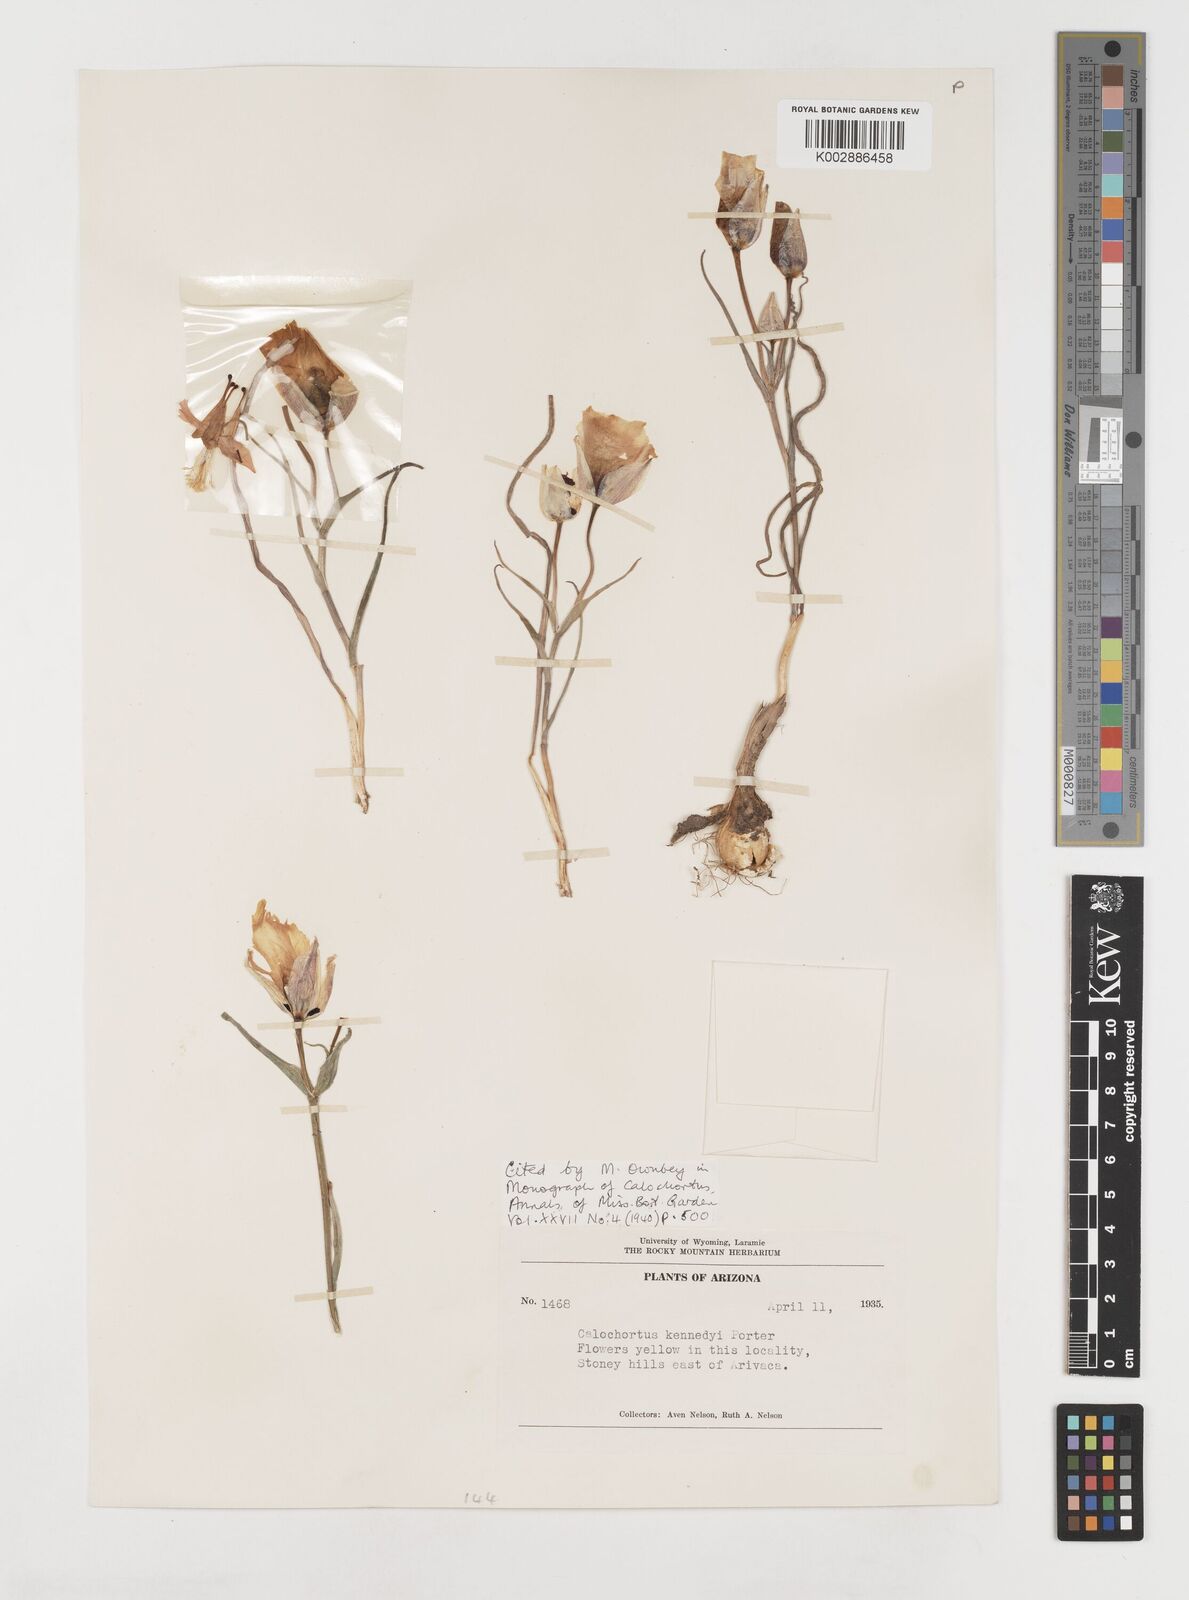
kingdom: Plantae
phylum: Tracheophyta
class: Liliopsida
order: Liliales
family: Liliaceae
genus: Calochortus
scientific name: Calochortus kennedyi
